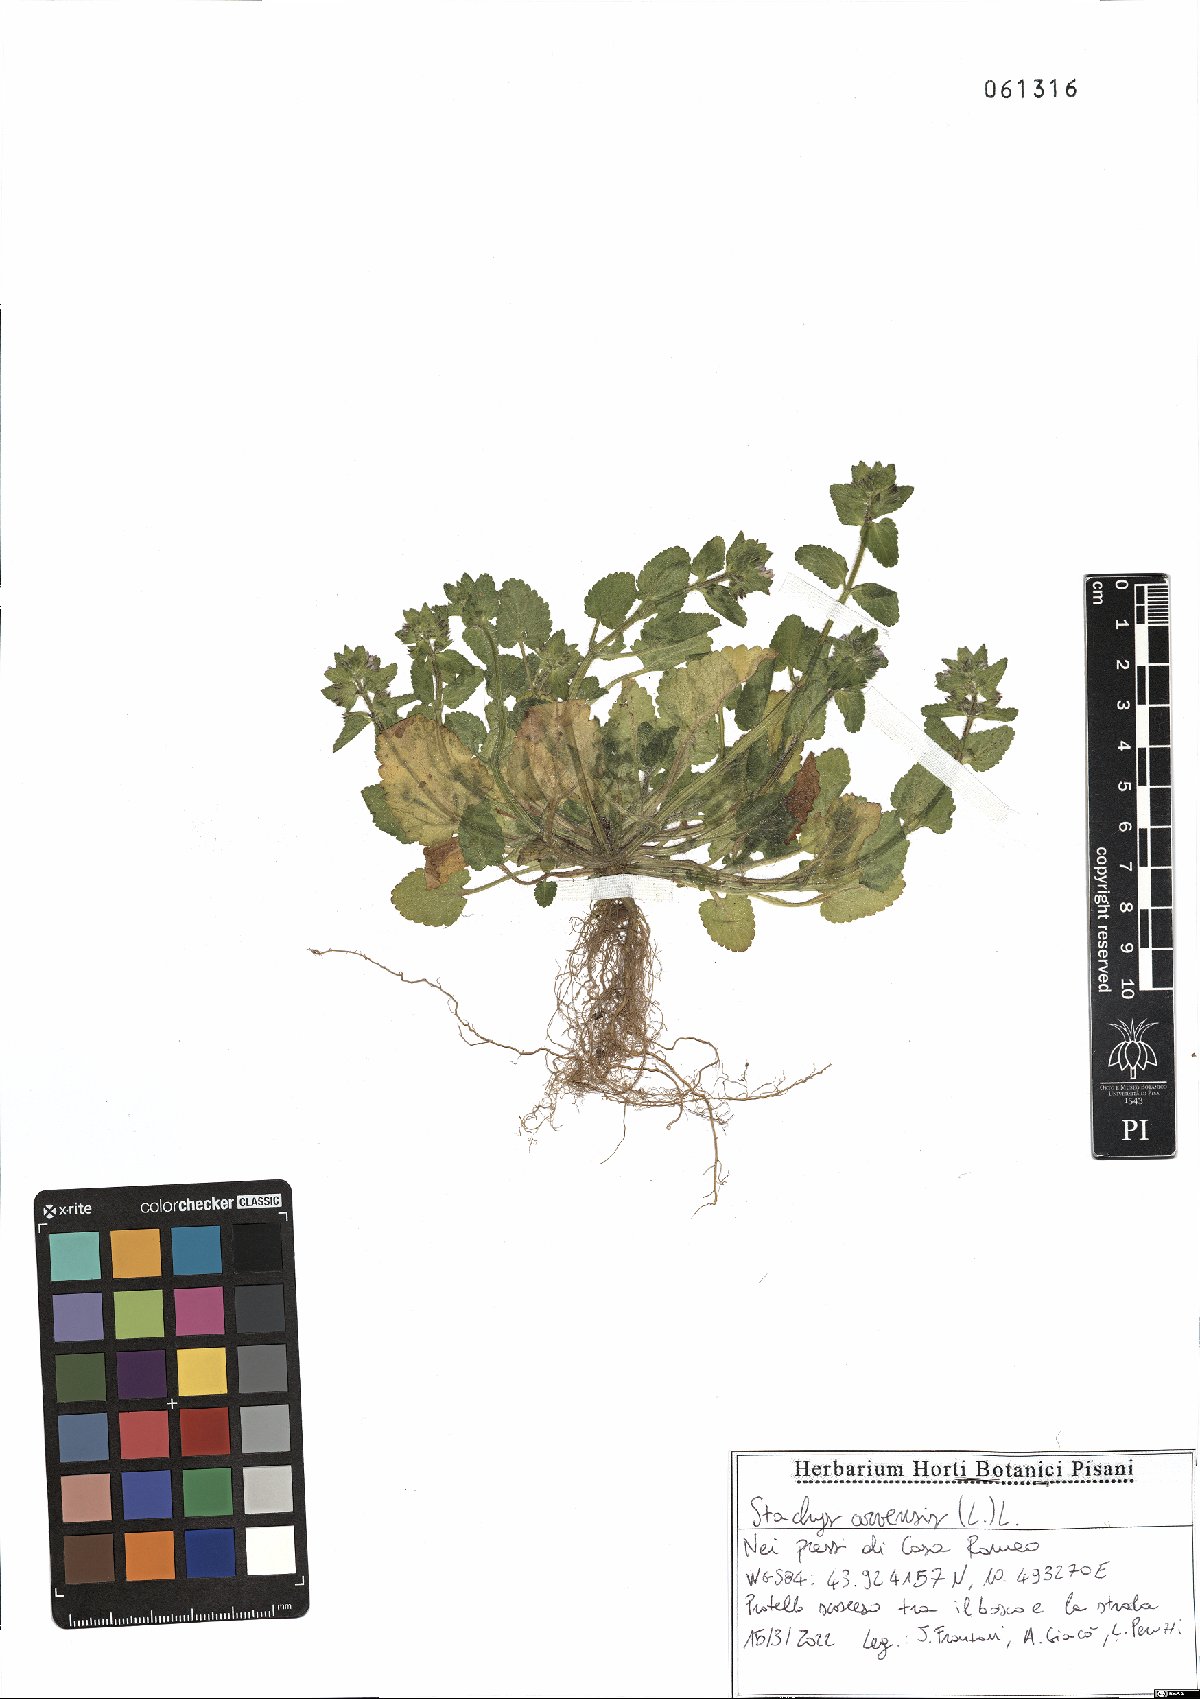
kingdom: Plantae
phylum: Tracheophyta
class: Magnoliopsida
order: Lamiales
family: Lamiaceae
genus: Stachys
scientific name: Stachys arvensis
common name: Field woundwort
